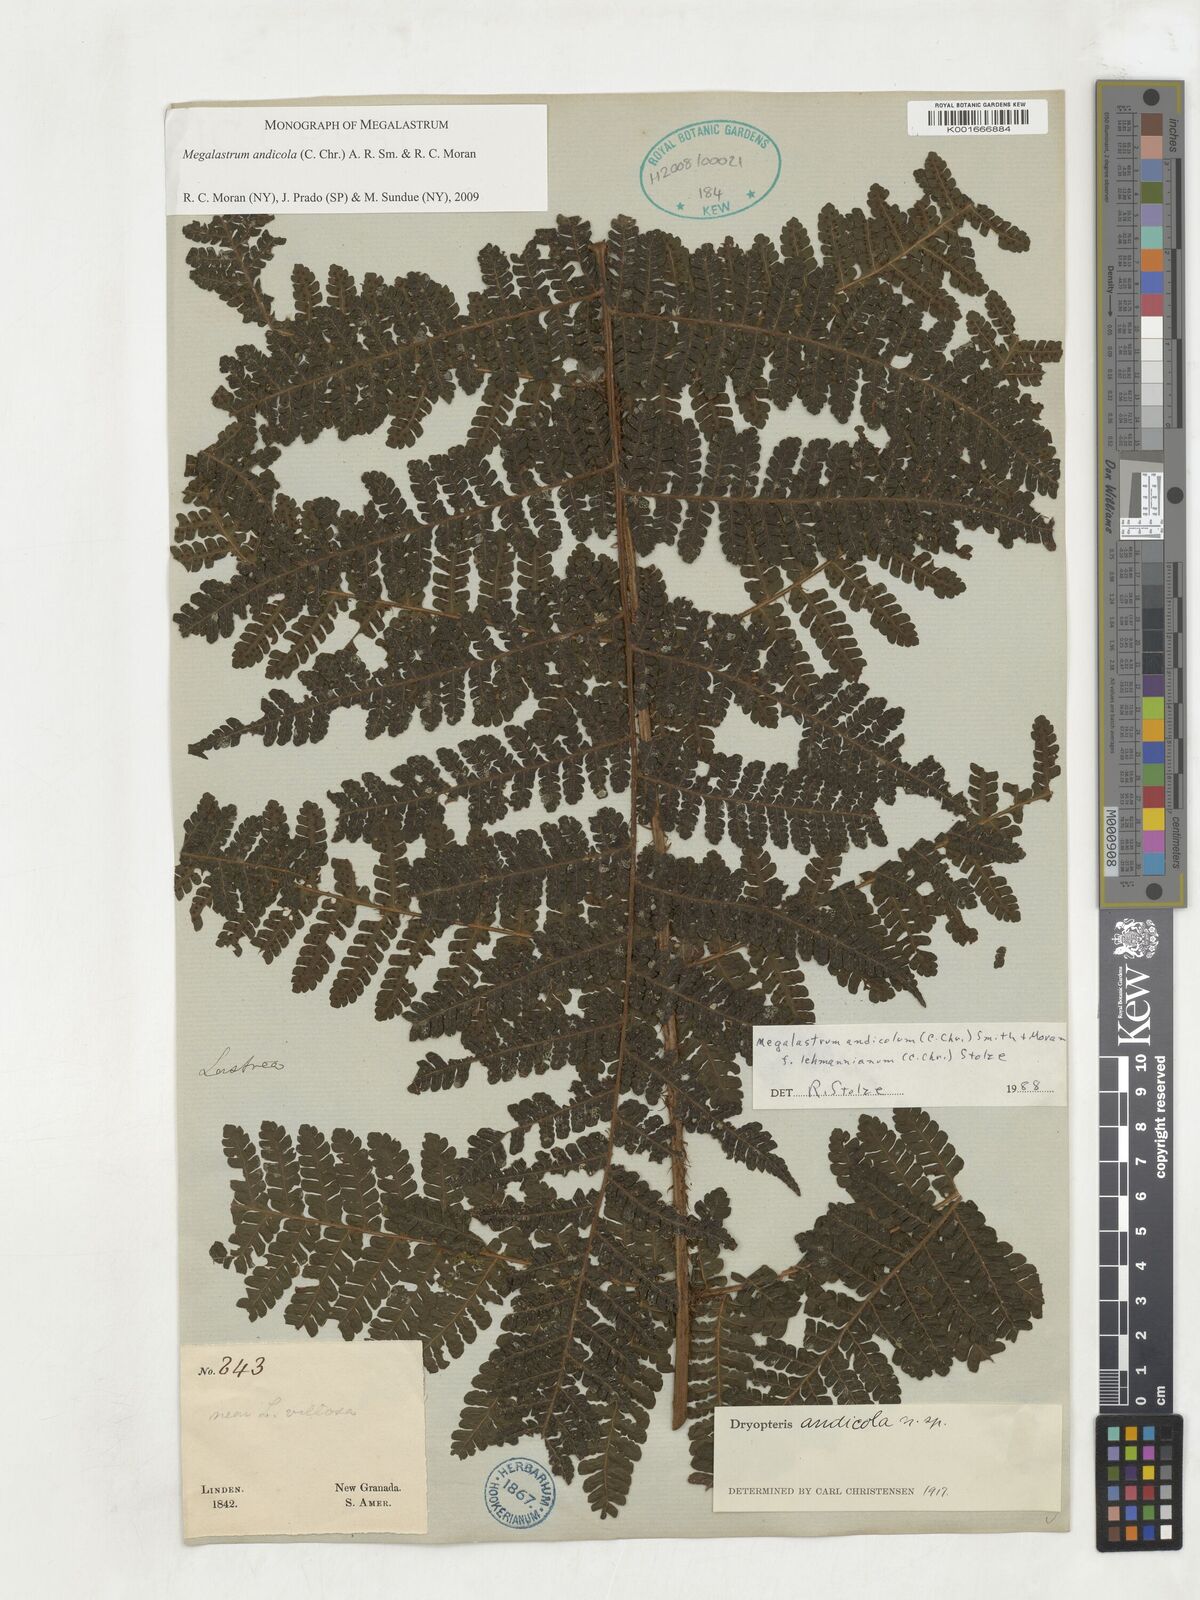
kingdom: Plantae
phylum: Tracheophyta
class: Polypodiopsida
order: Polypodiales
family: Dryopteridaceae
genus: Megalastrum
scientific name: Megalastrum andicola
